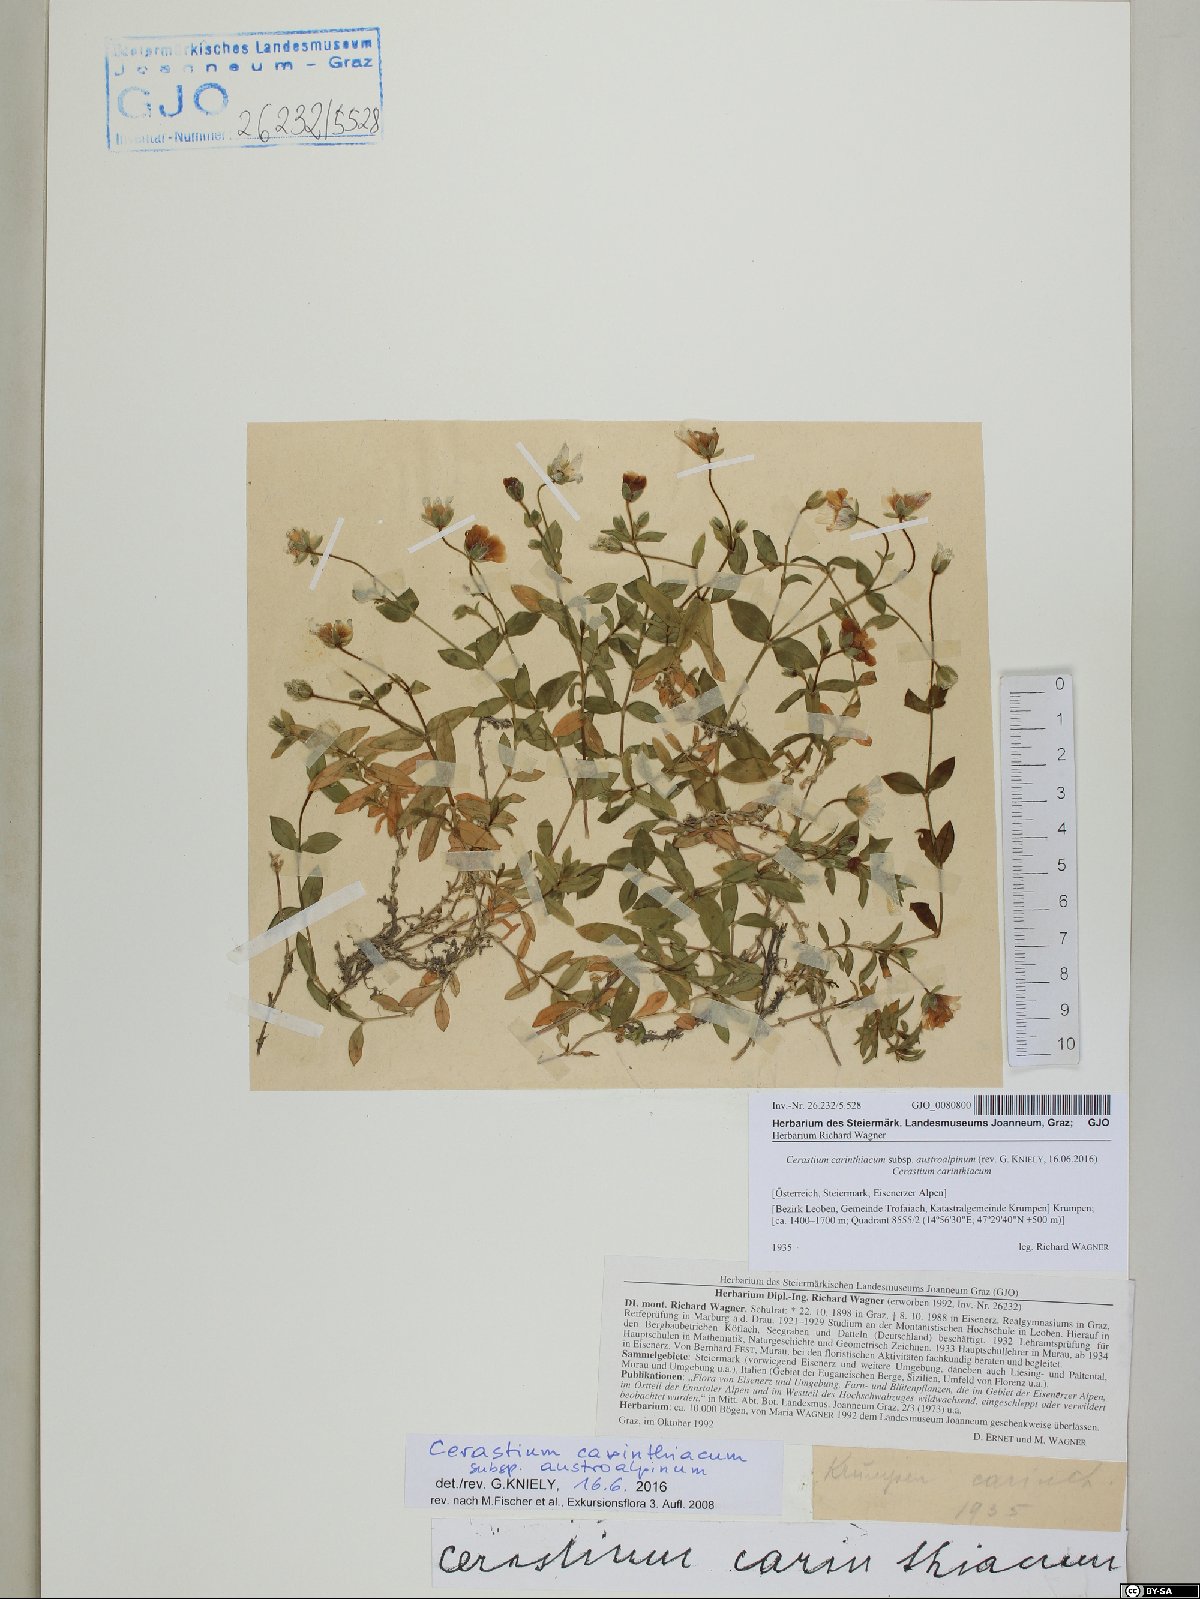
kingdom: Plantae
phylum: Tracheophyta
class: Magnoliopsida
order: Caryophyllales
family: Caryophyllaceae
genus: Cerastium
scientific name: Cerastium carinthiacum
